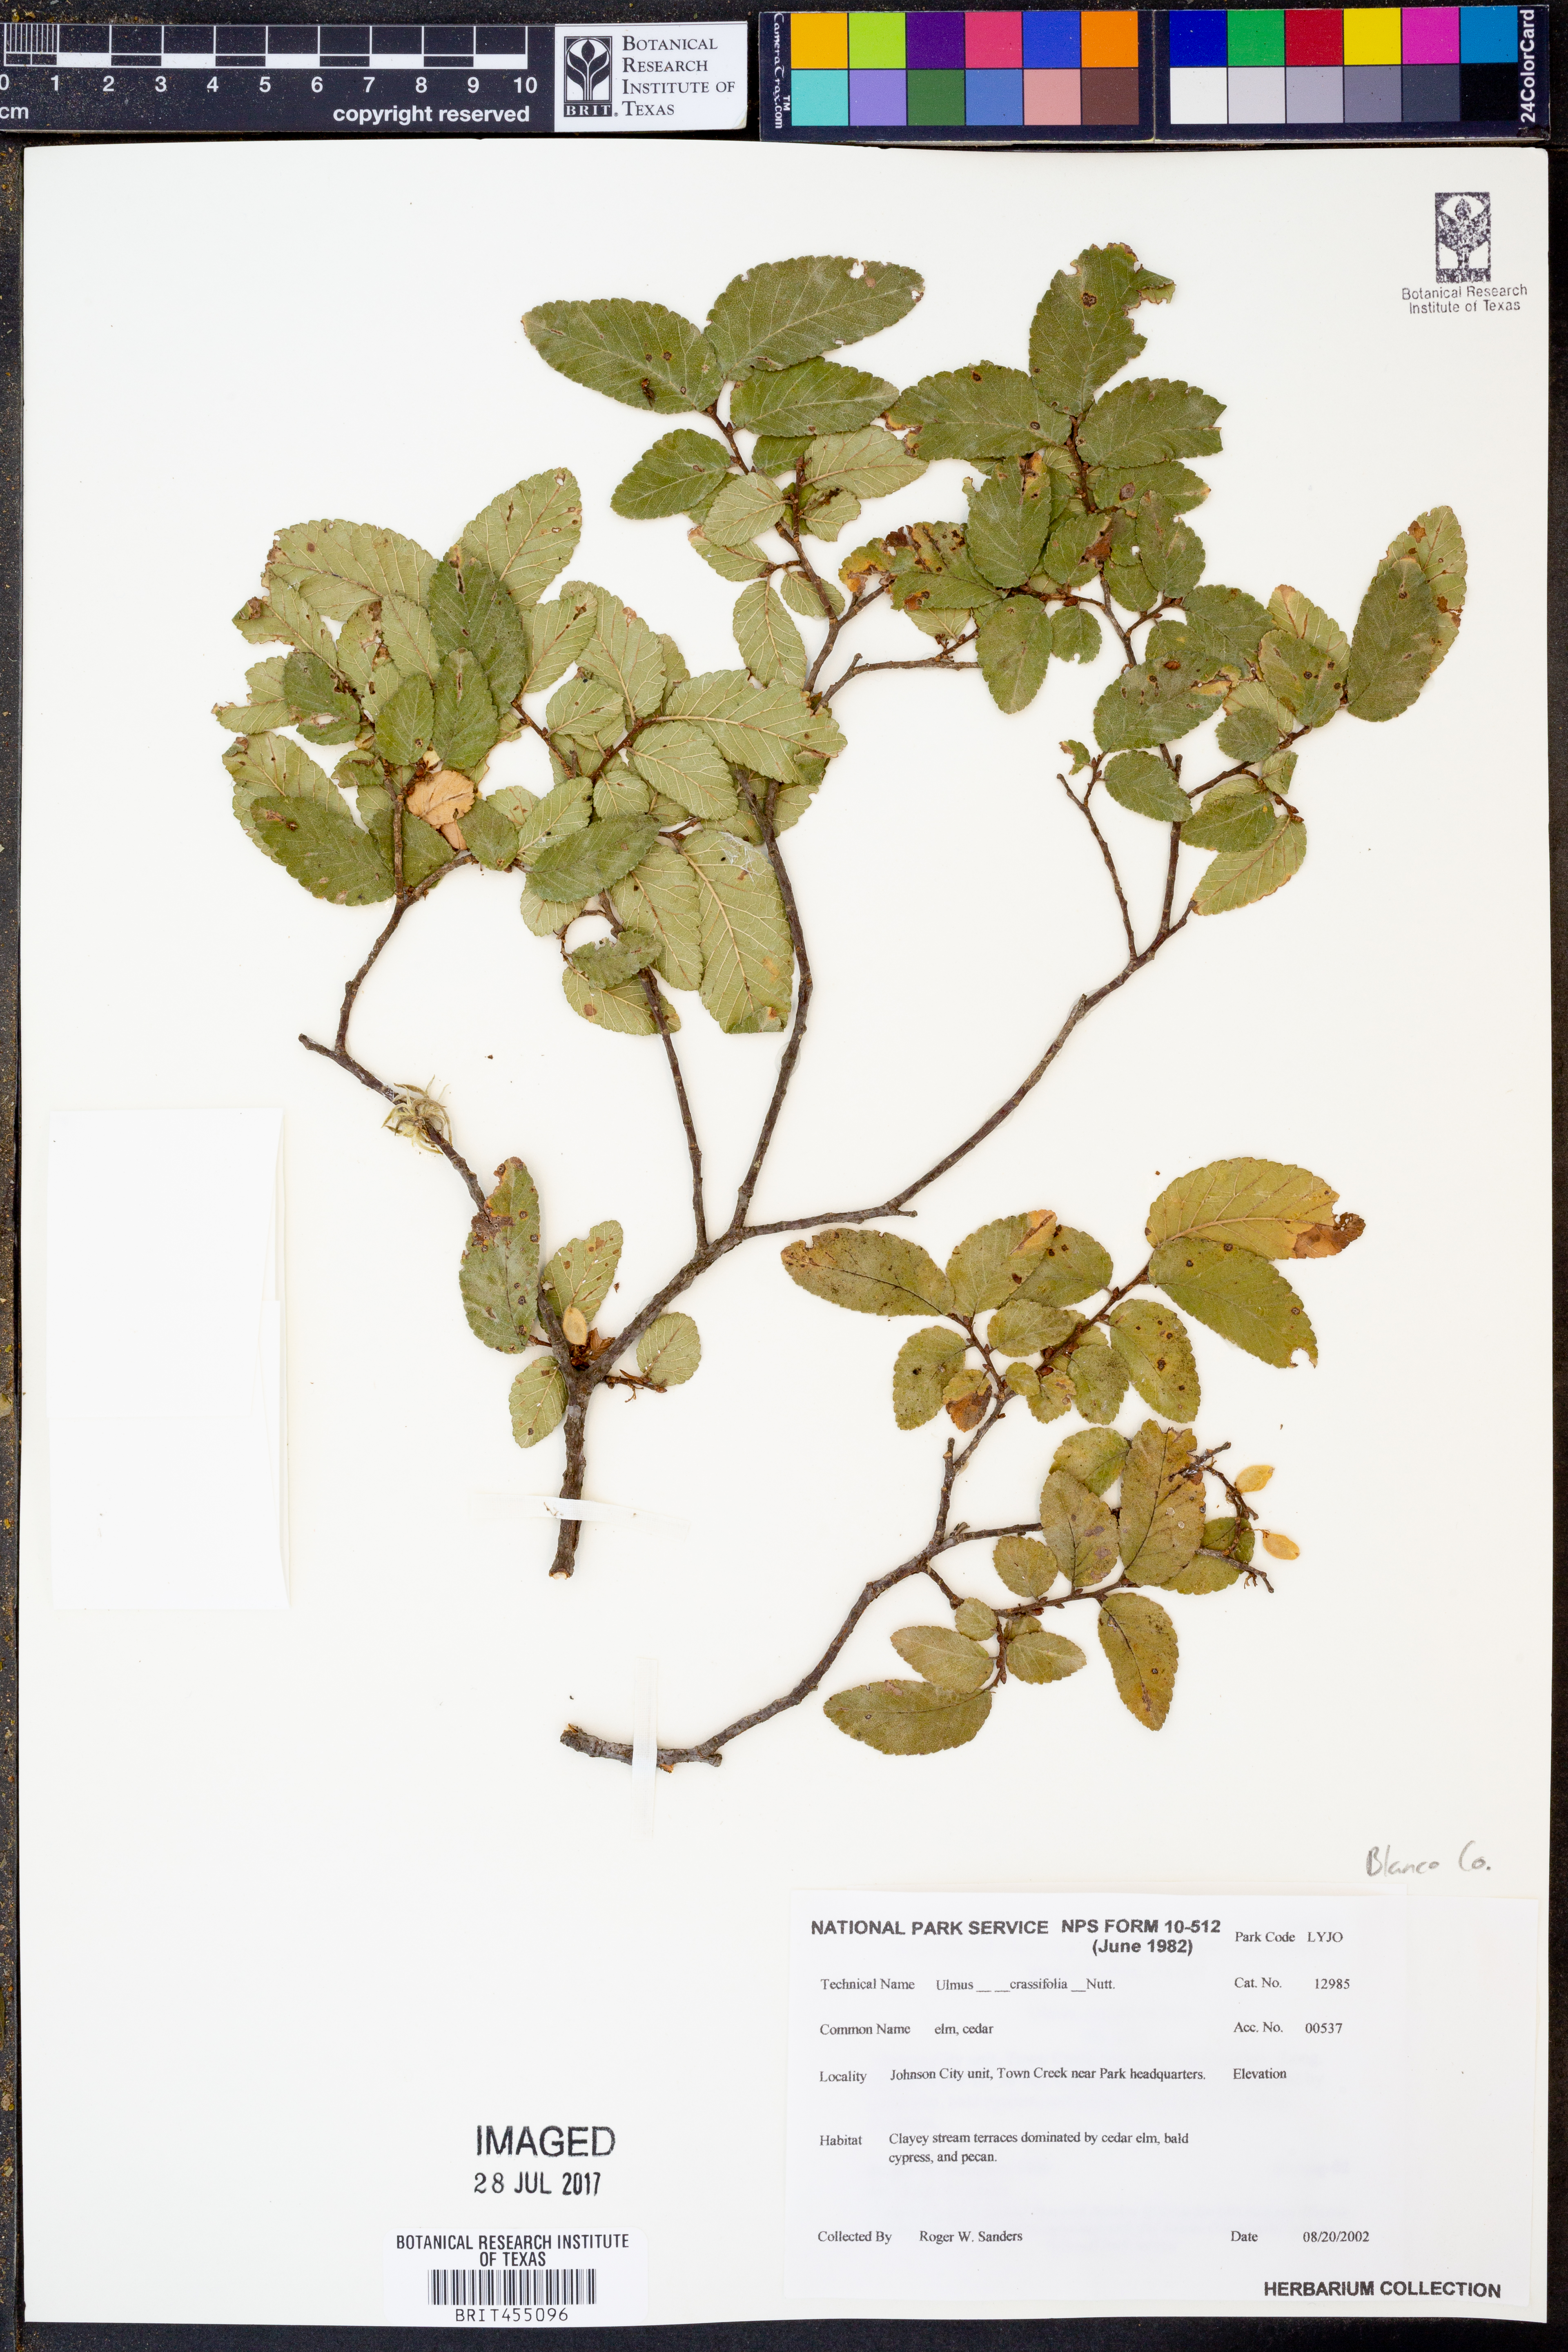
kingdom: Plantae
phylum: Tracheophyta
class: Magnoliopsida
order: Rosales
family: Ulmaceae
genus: Ulmus
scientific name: Ulmus crassifolia
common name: Basket elm
